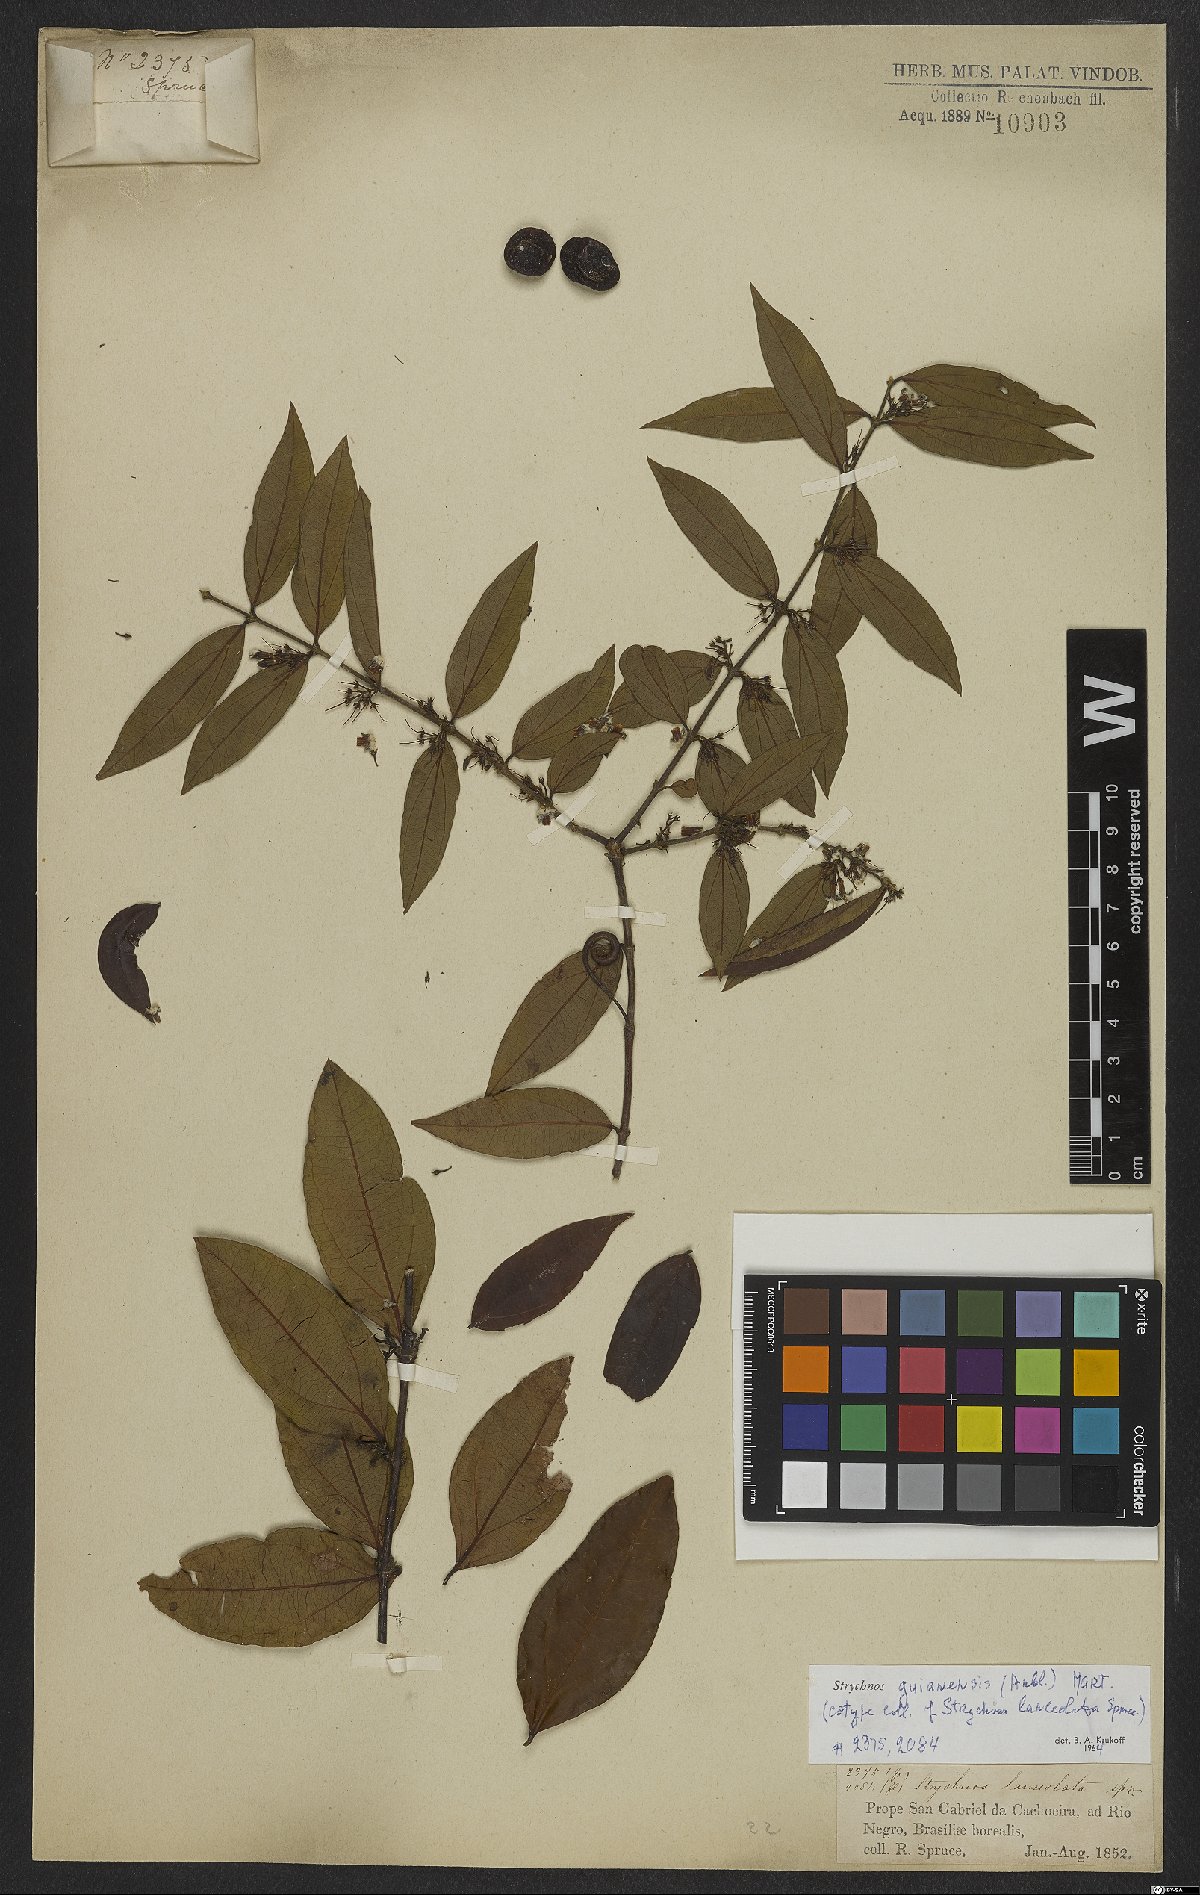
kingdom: Plantae
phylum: Tracheophyta
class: Magnoliopsida
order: Gentianales
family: Loganiaceae
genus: Strychnos
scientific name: Strychnos guianensis
